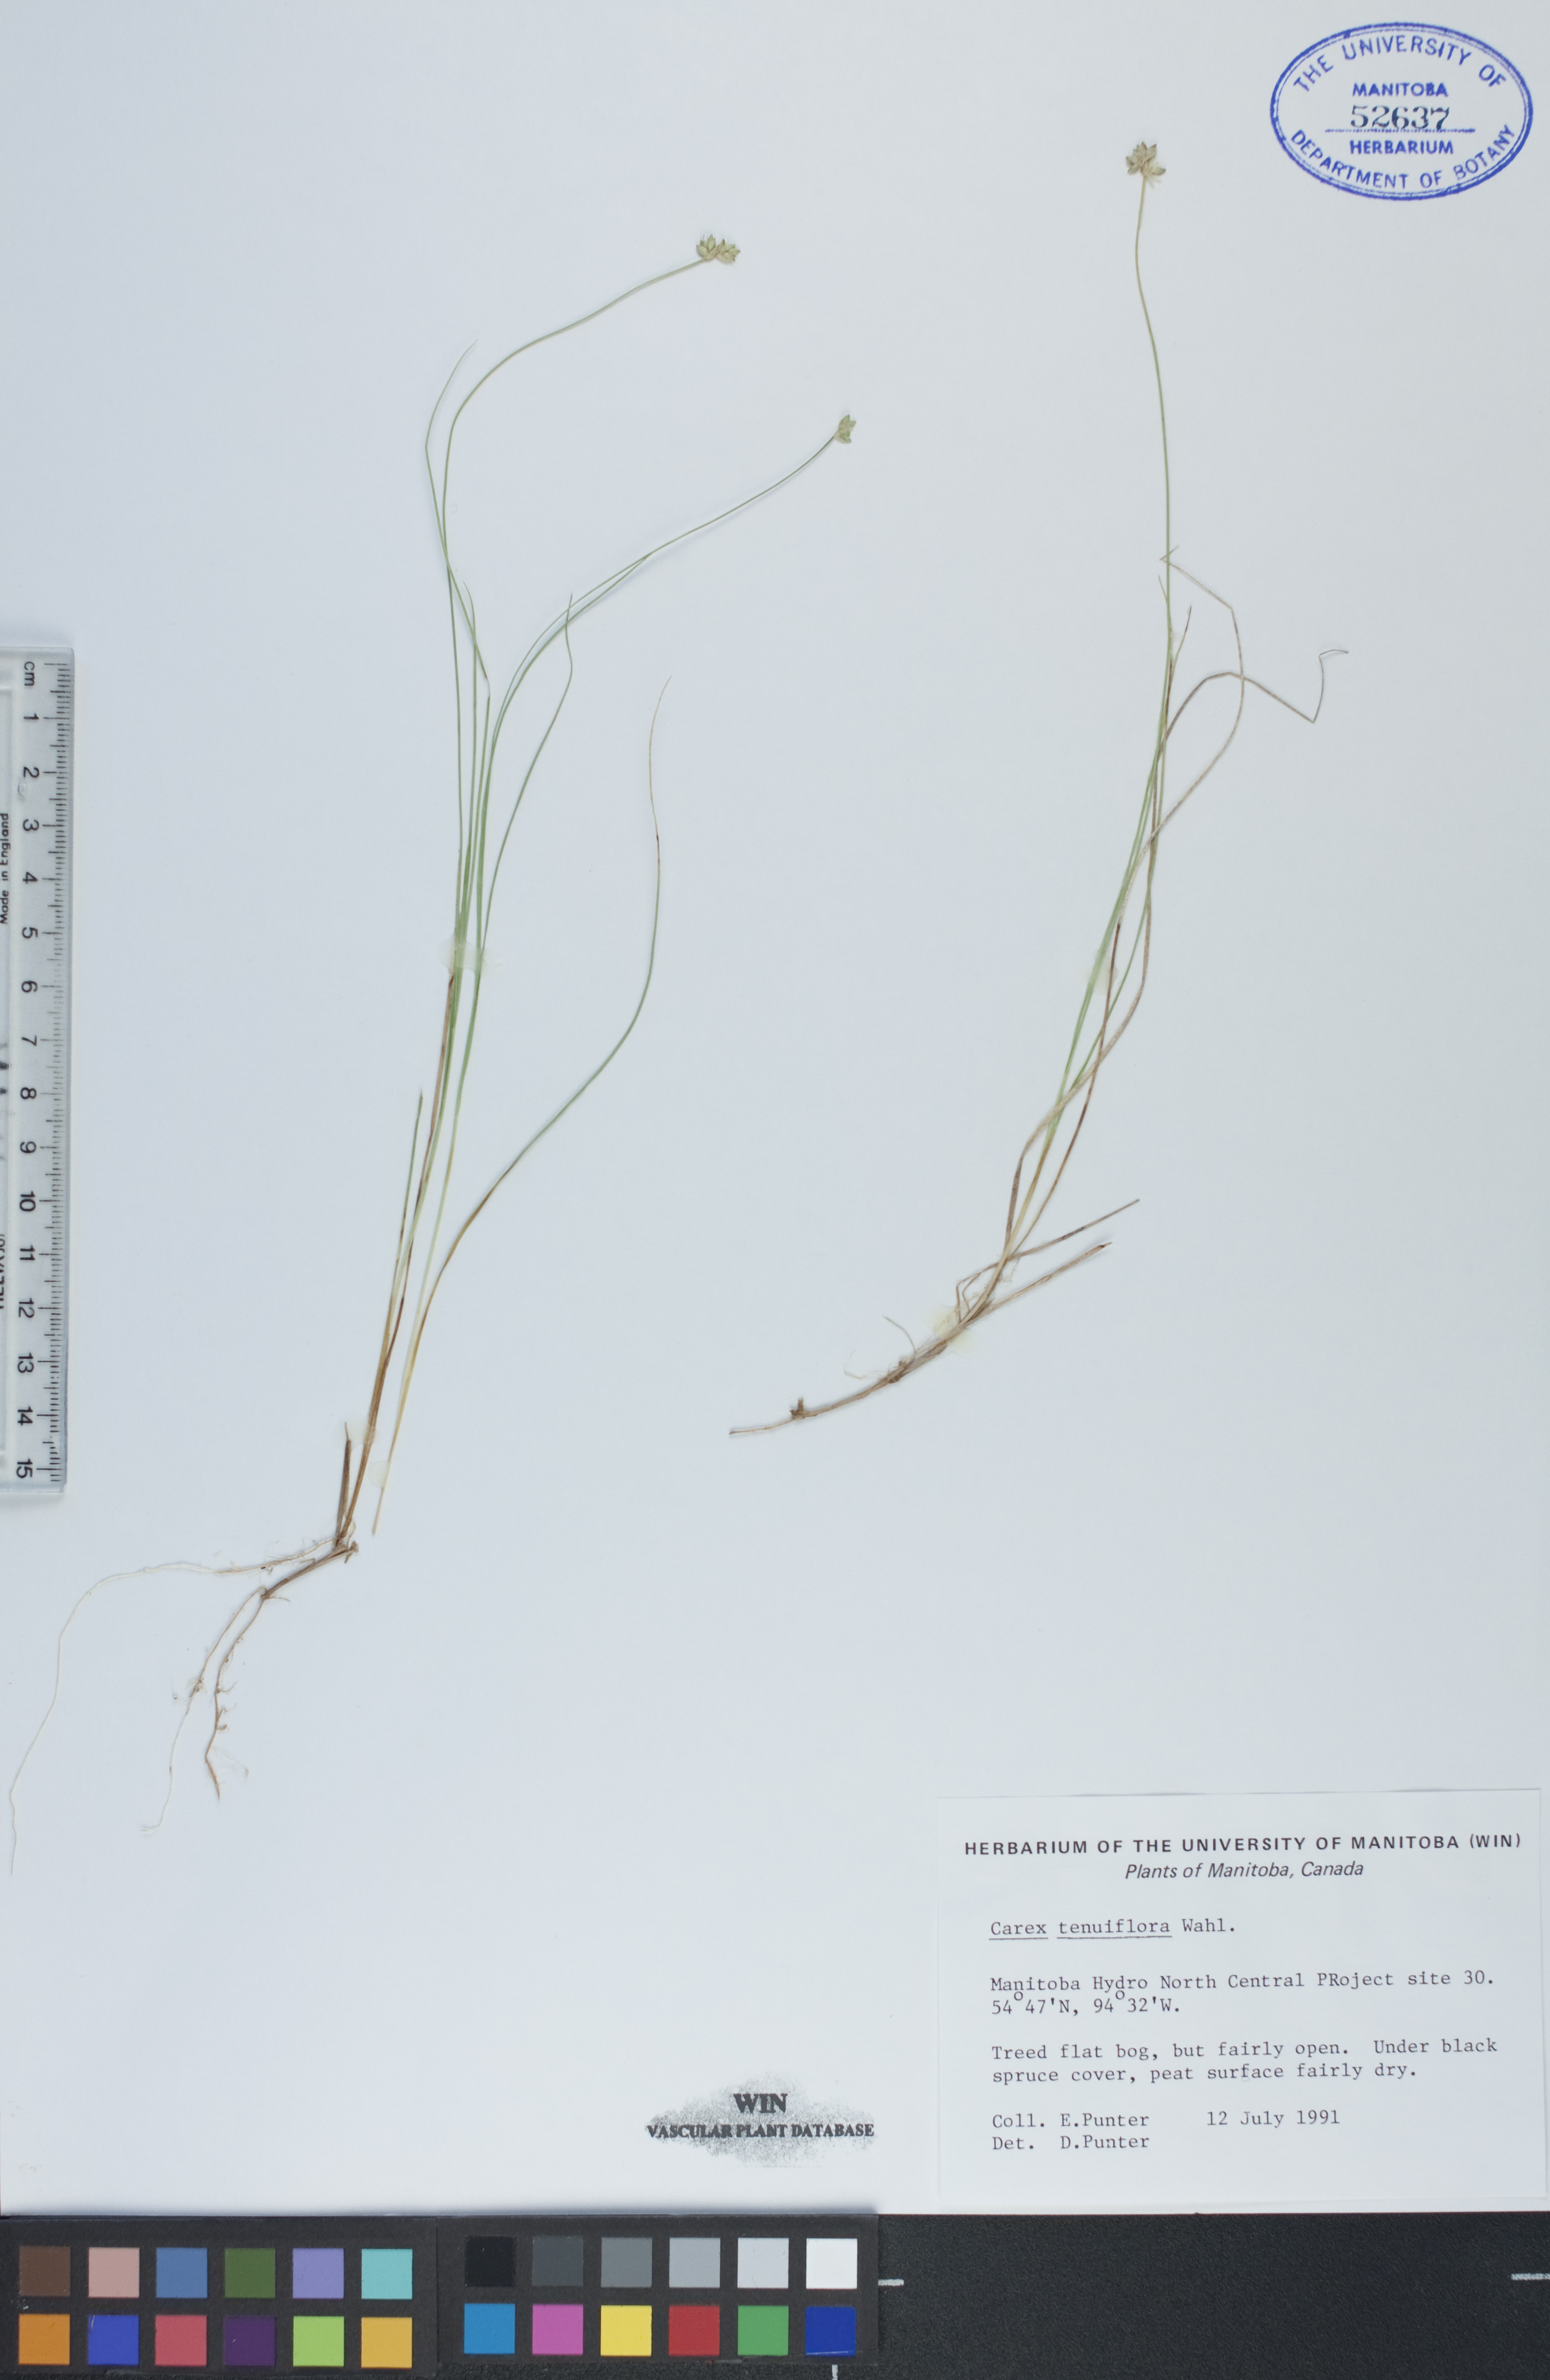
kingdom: Plantae
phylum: Tracheophyta
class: Liliopsida
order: Poales
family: Cyperaceae
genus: Carex
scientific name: Carex tenuiflora
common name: Sparse-flowered sedge
